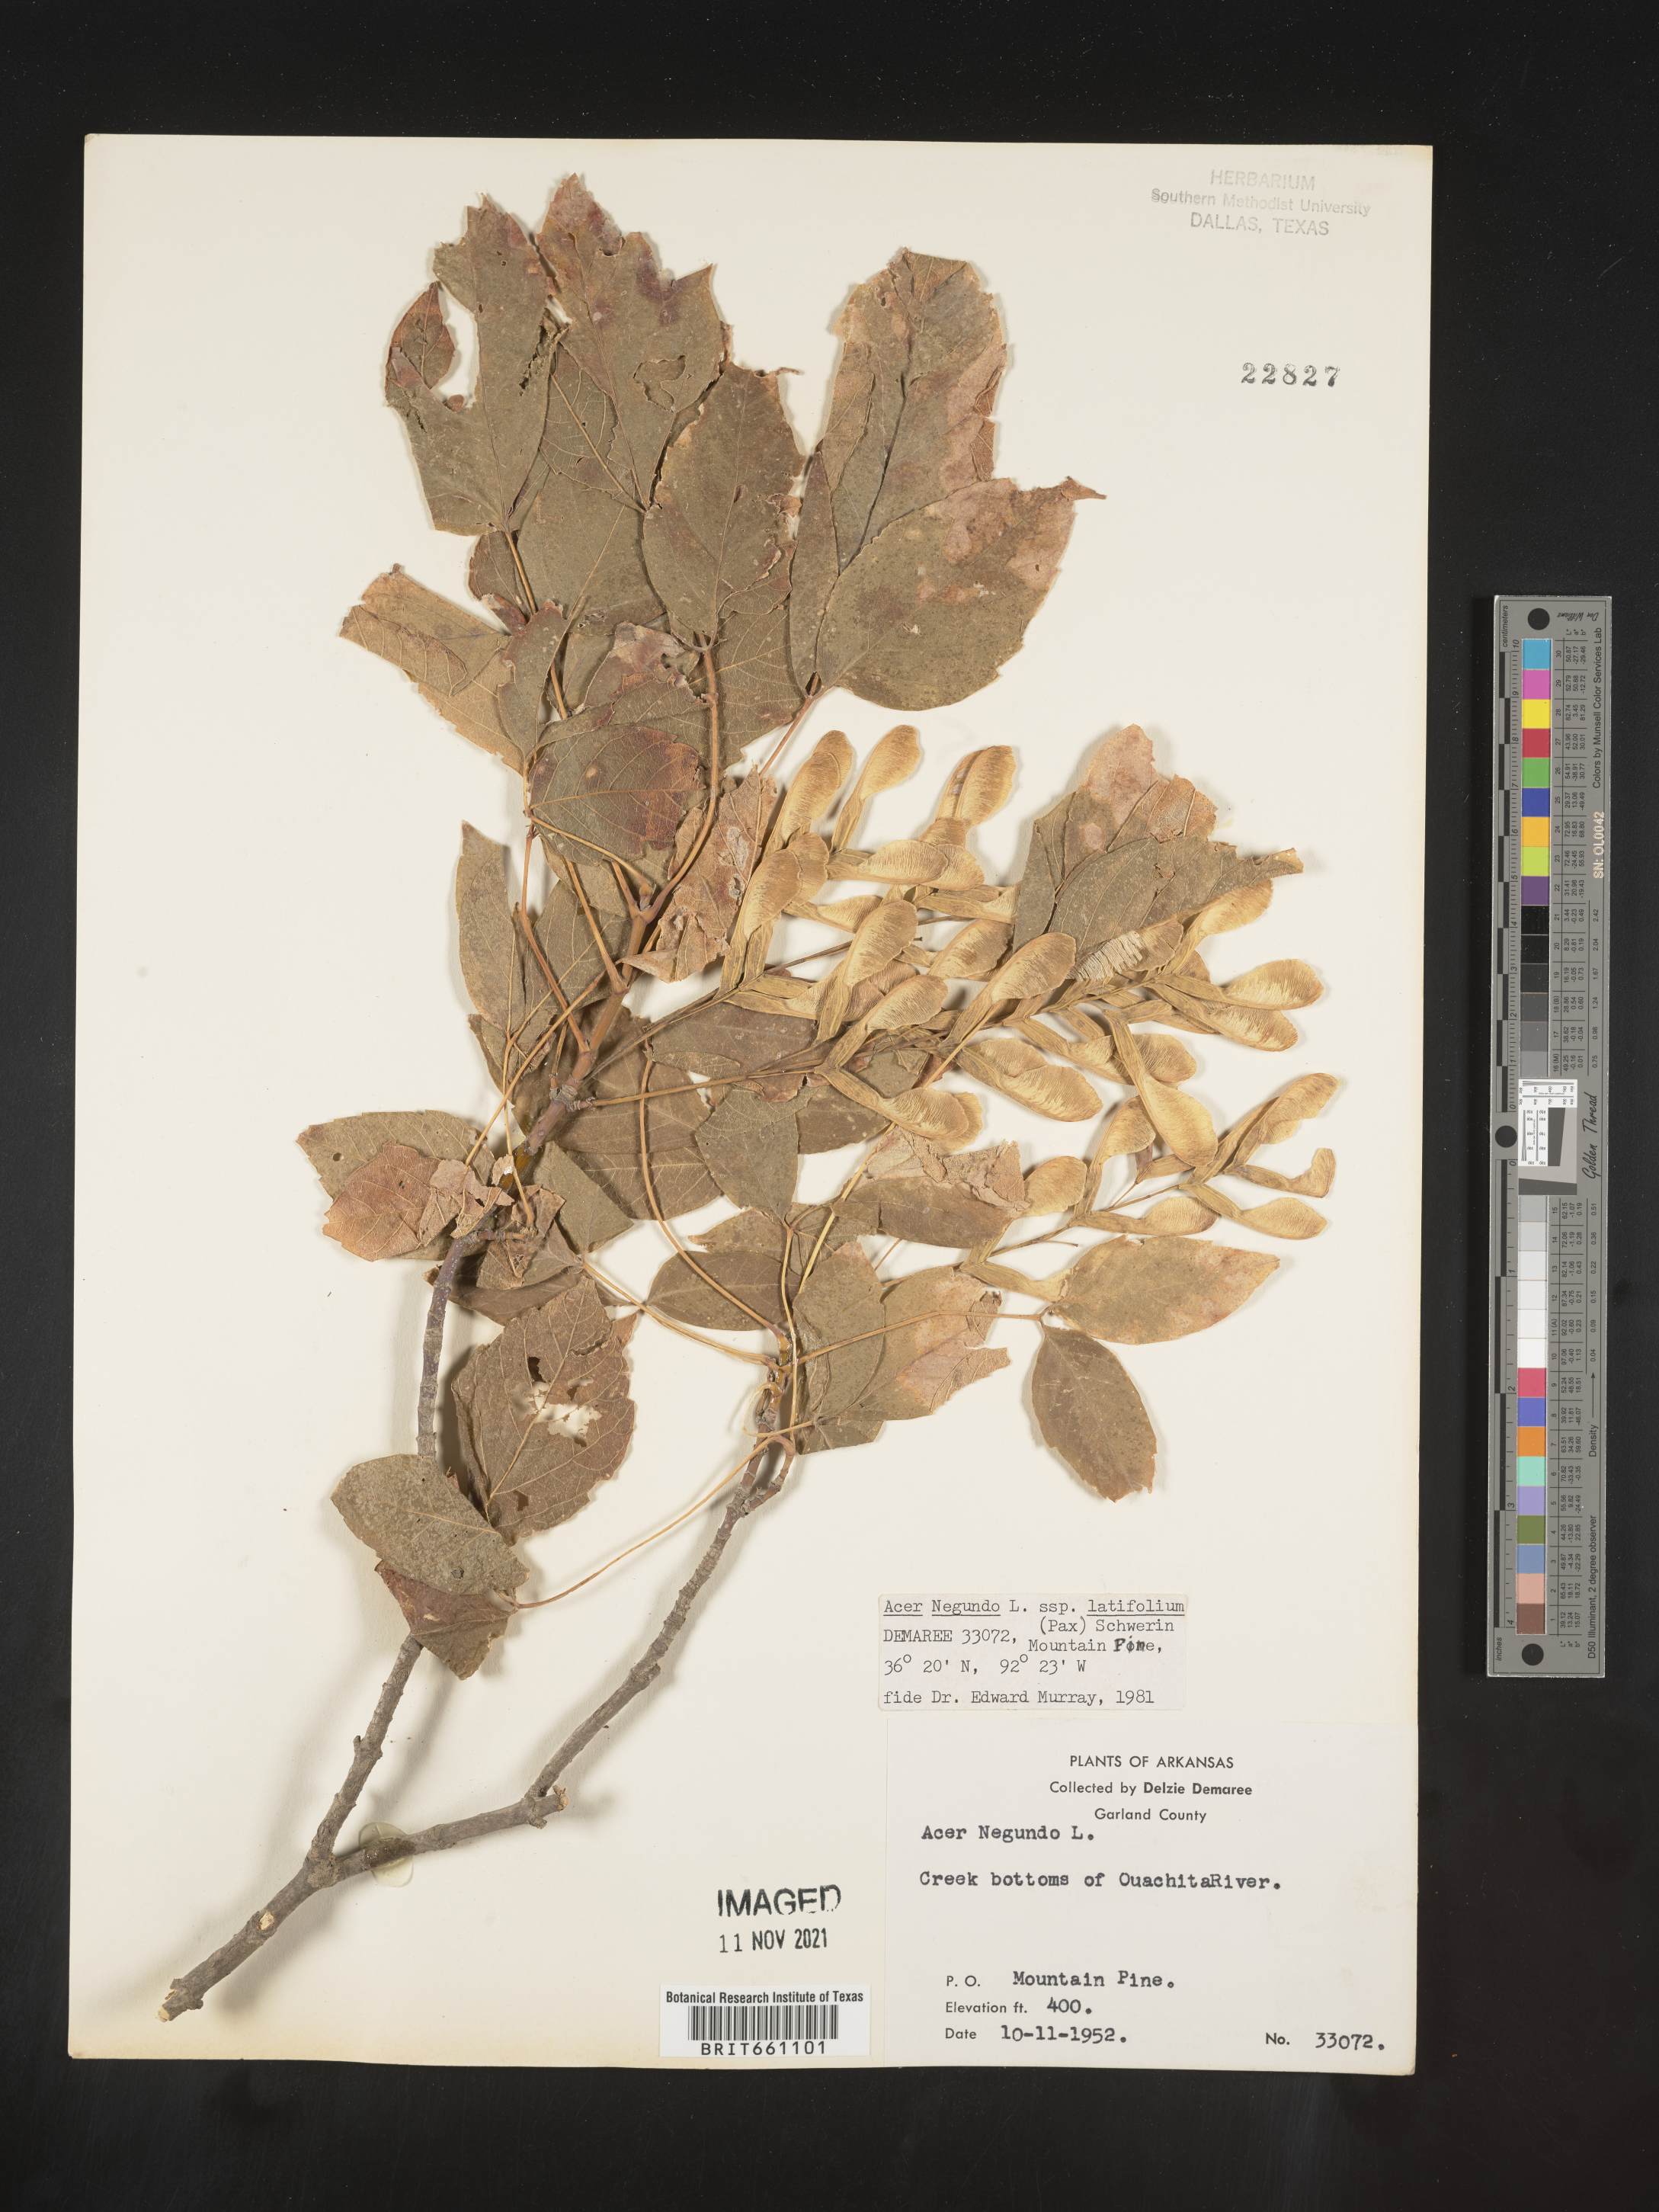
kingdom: Plantae
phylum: Tracheophyta
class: Magnoliopsida
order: Sapindales
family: Sapindaceae
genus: Acer
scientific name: Acer negundo
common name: Ashleaf maple
